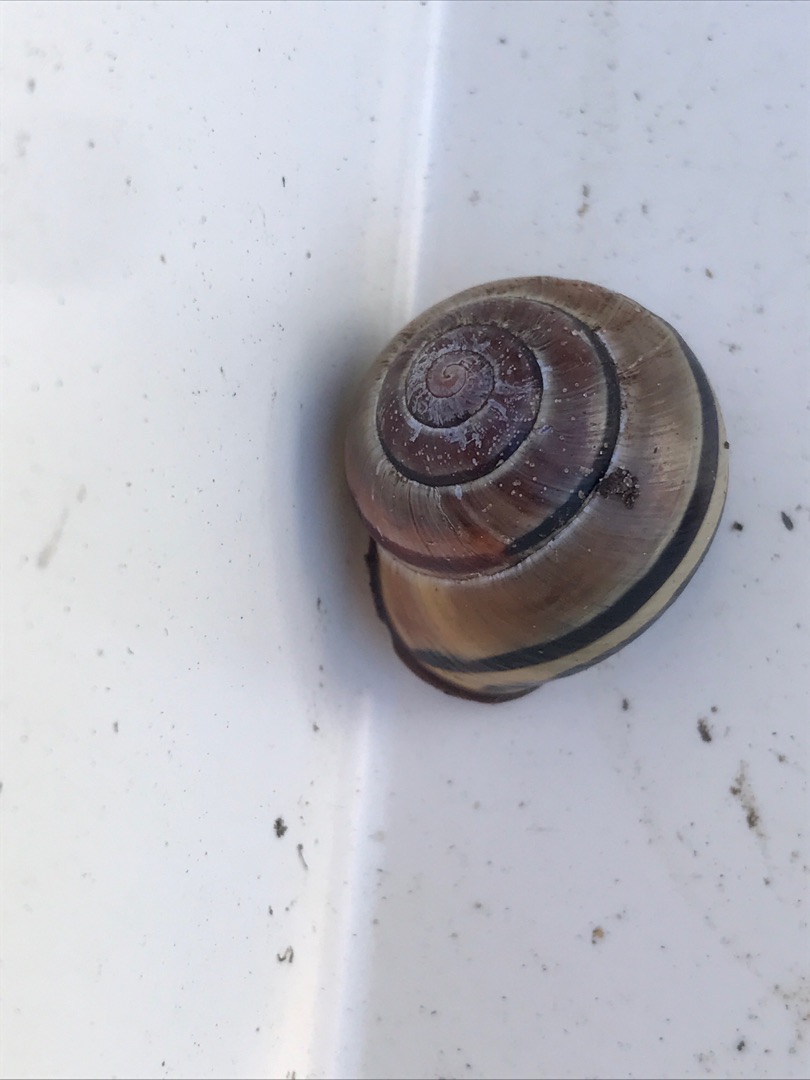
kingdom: Animalia
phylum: Mollusca
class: Gastropoda
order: Stylommatophora
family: Helicidae
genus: Cepaea
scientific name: Cepaea nemoralis
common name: Lundsnegl
